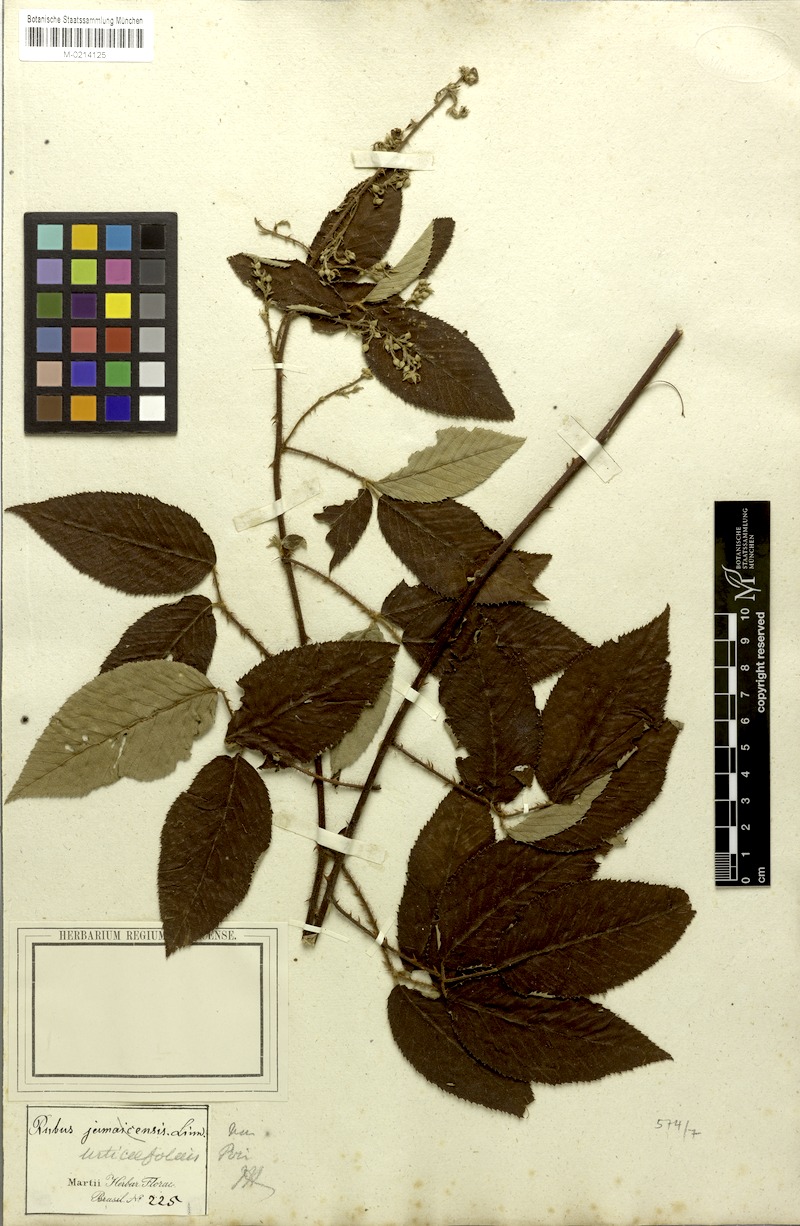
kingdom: Plantae
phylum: Tracheophyta
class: Magnoliopsida
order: Rosales
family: Rosaceae
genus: Rubus
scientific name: Rubus urticifolius
